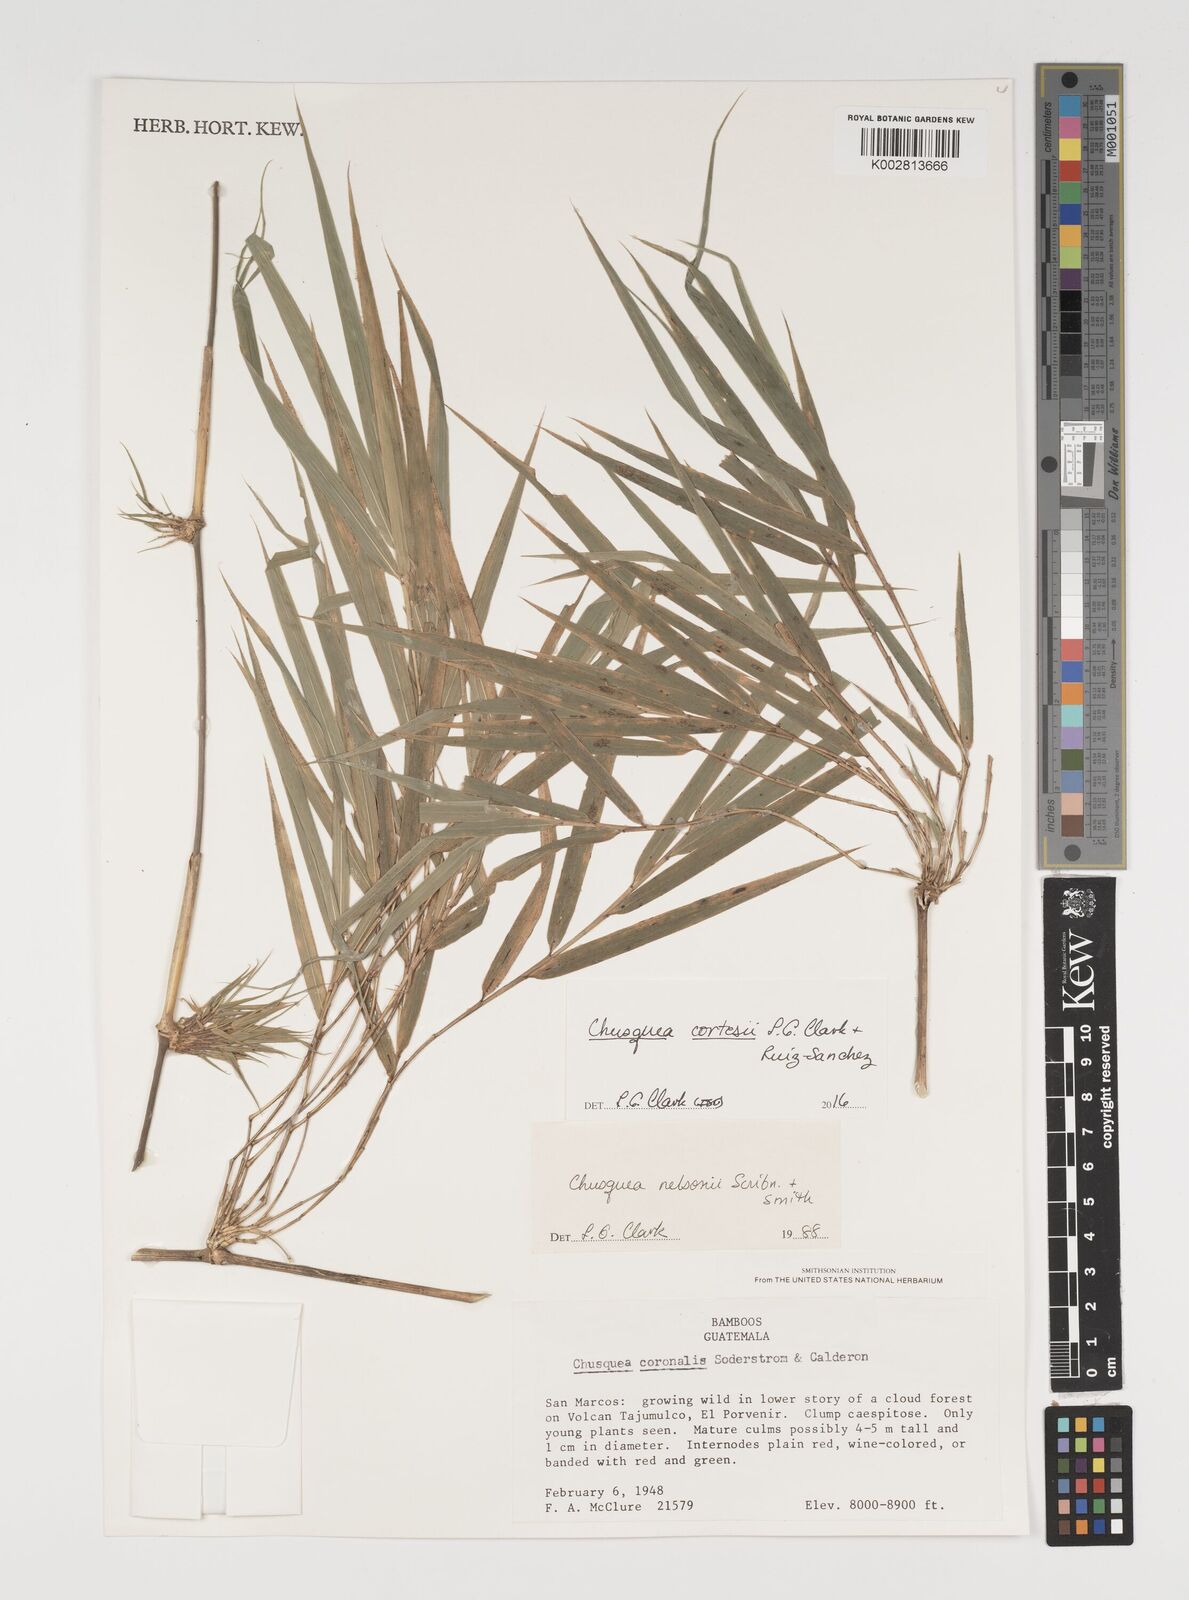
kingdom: Plantae
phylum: Tracheophyta
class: Liliopsida
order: Poales
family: Poaceae
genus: Chusquea
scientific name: Chusquea cortesii
